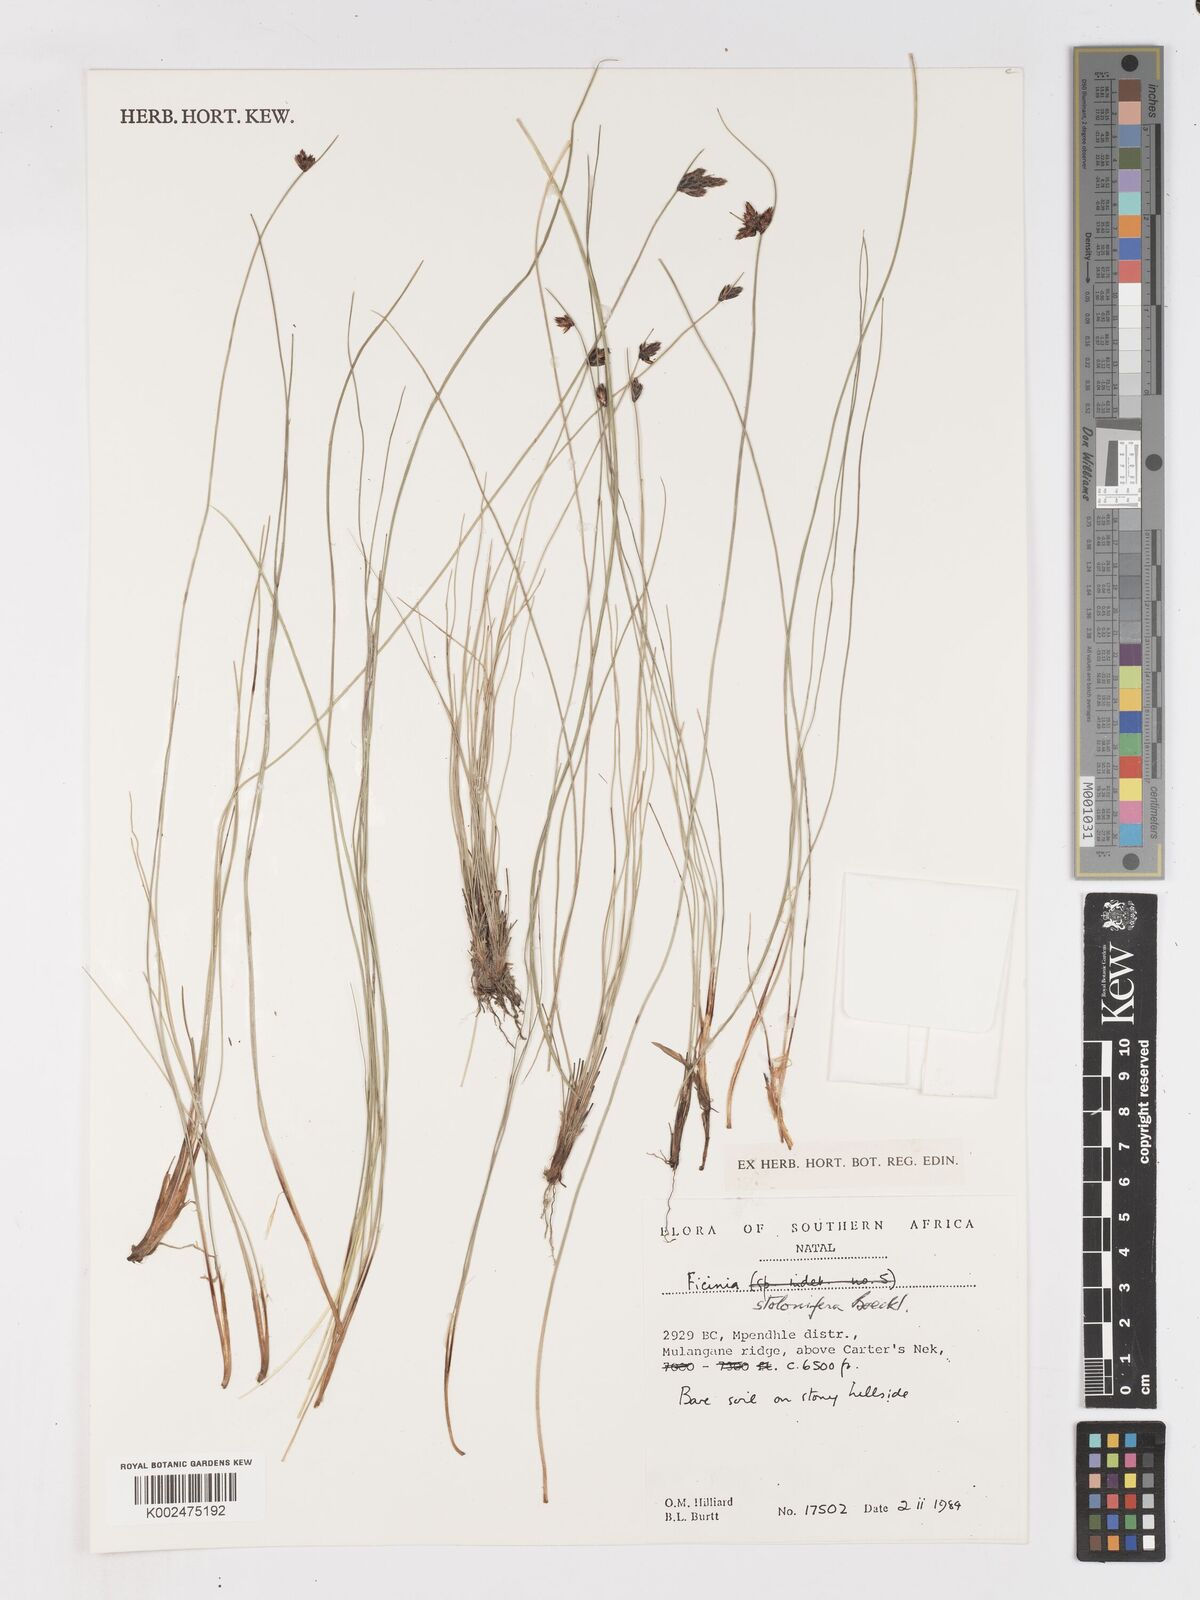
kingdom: Plantae
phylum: Tracheophyta
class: Liliopsida
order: Poales
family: Cyperaceae
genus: Ficinia
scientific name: Ficinia stolonifera
